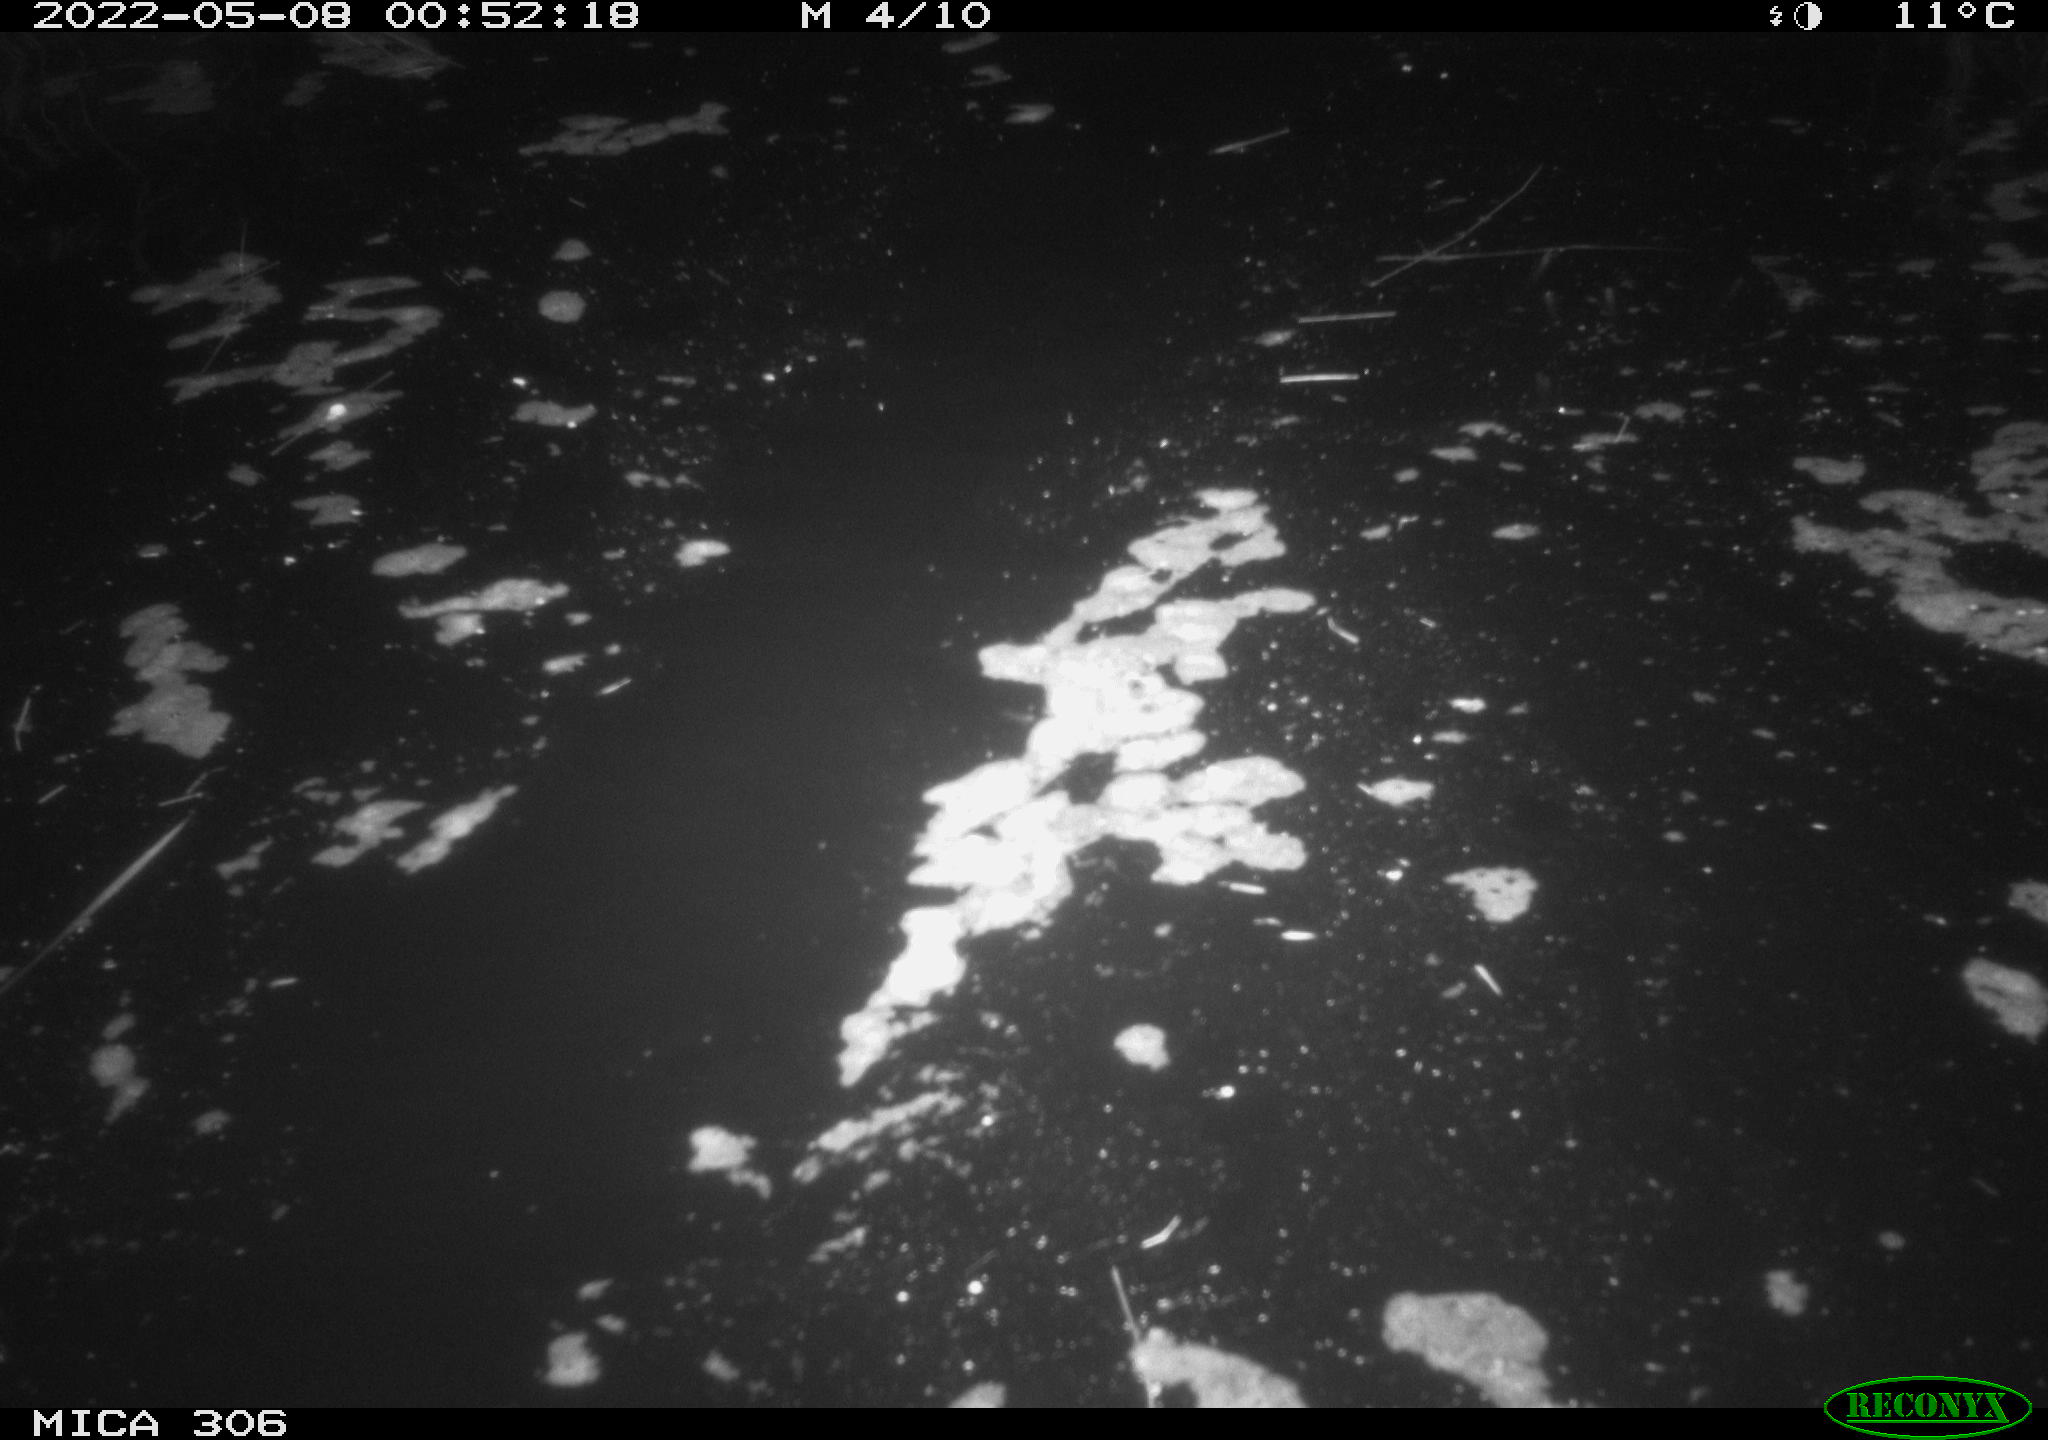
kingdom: Animalia
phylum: Chordata
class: Mammalia
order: Rodentia
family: Cricetidae
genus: Ondatra
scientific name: Ondatra zibethicus
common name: Muskrat
